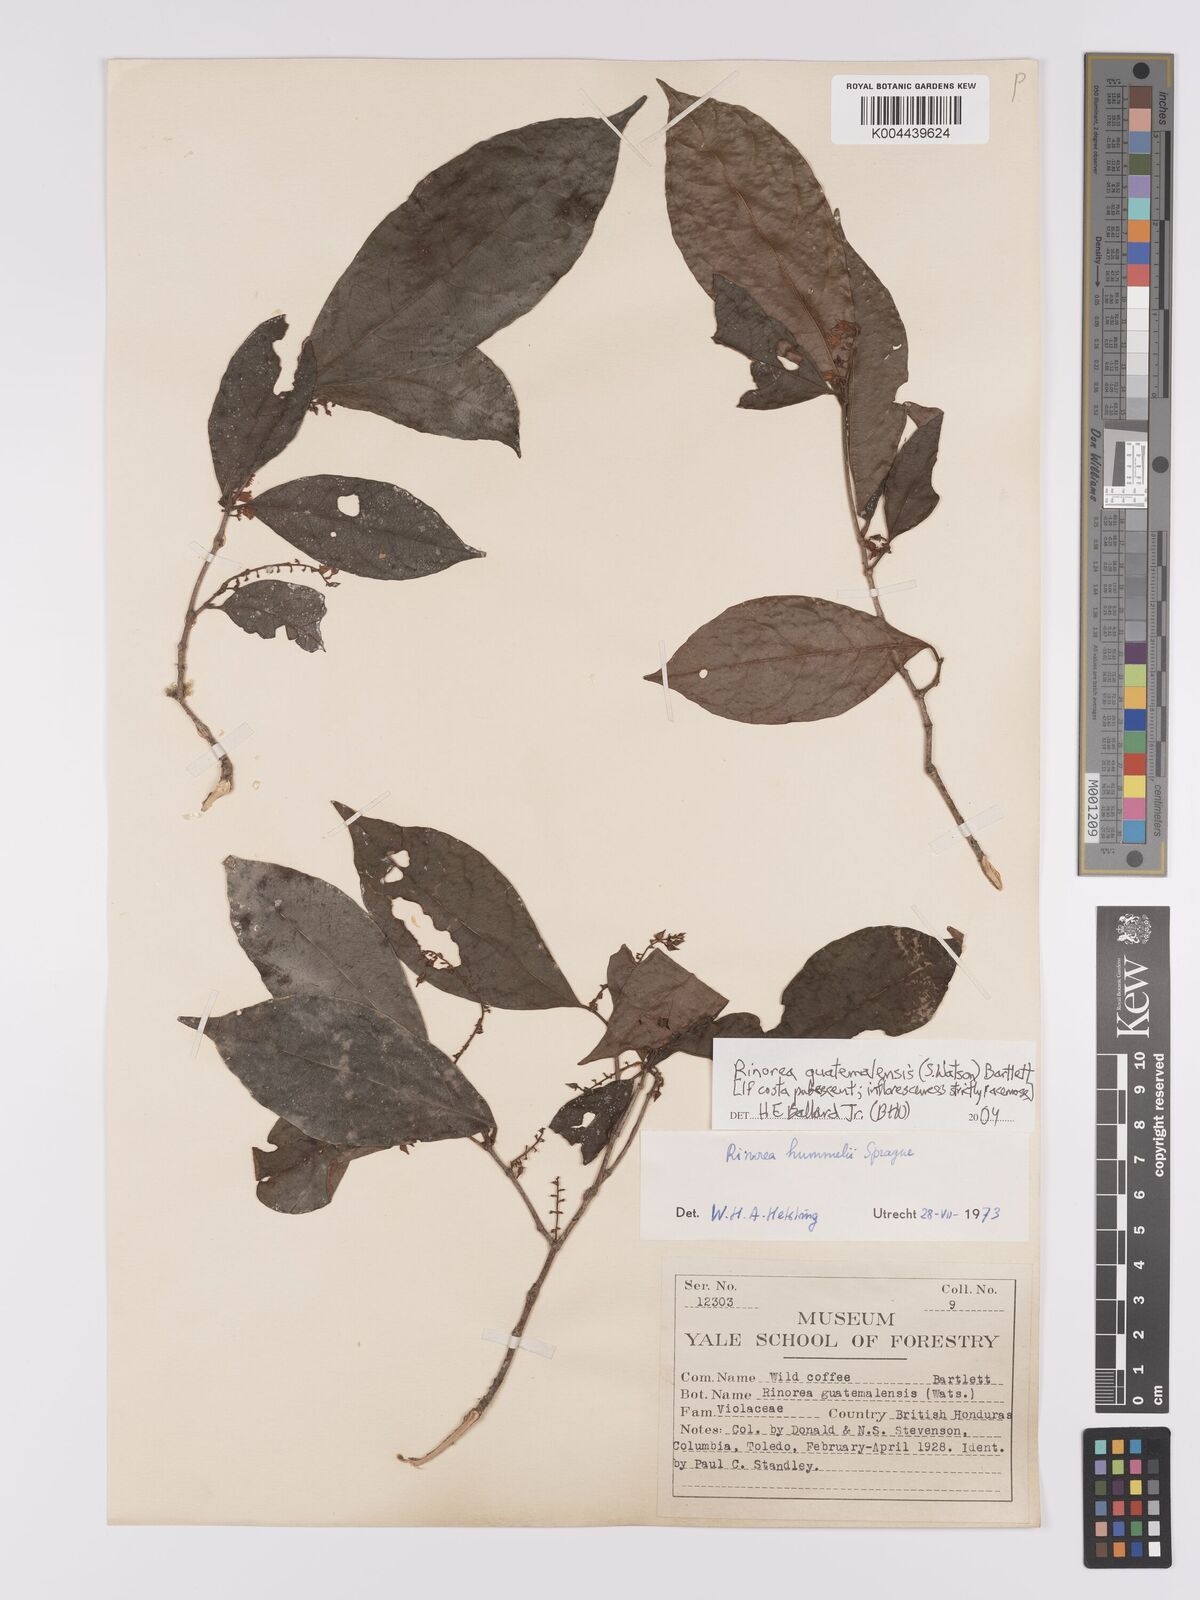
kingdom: Plantae
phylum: Tracheophyta
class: Magnoliopsida
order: Malpighiales
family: Violaceae
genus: Rinorea
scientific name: Rinorea guatemalensis
